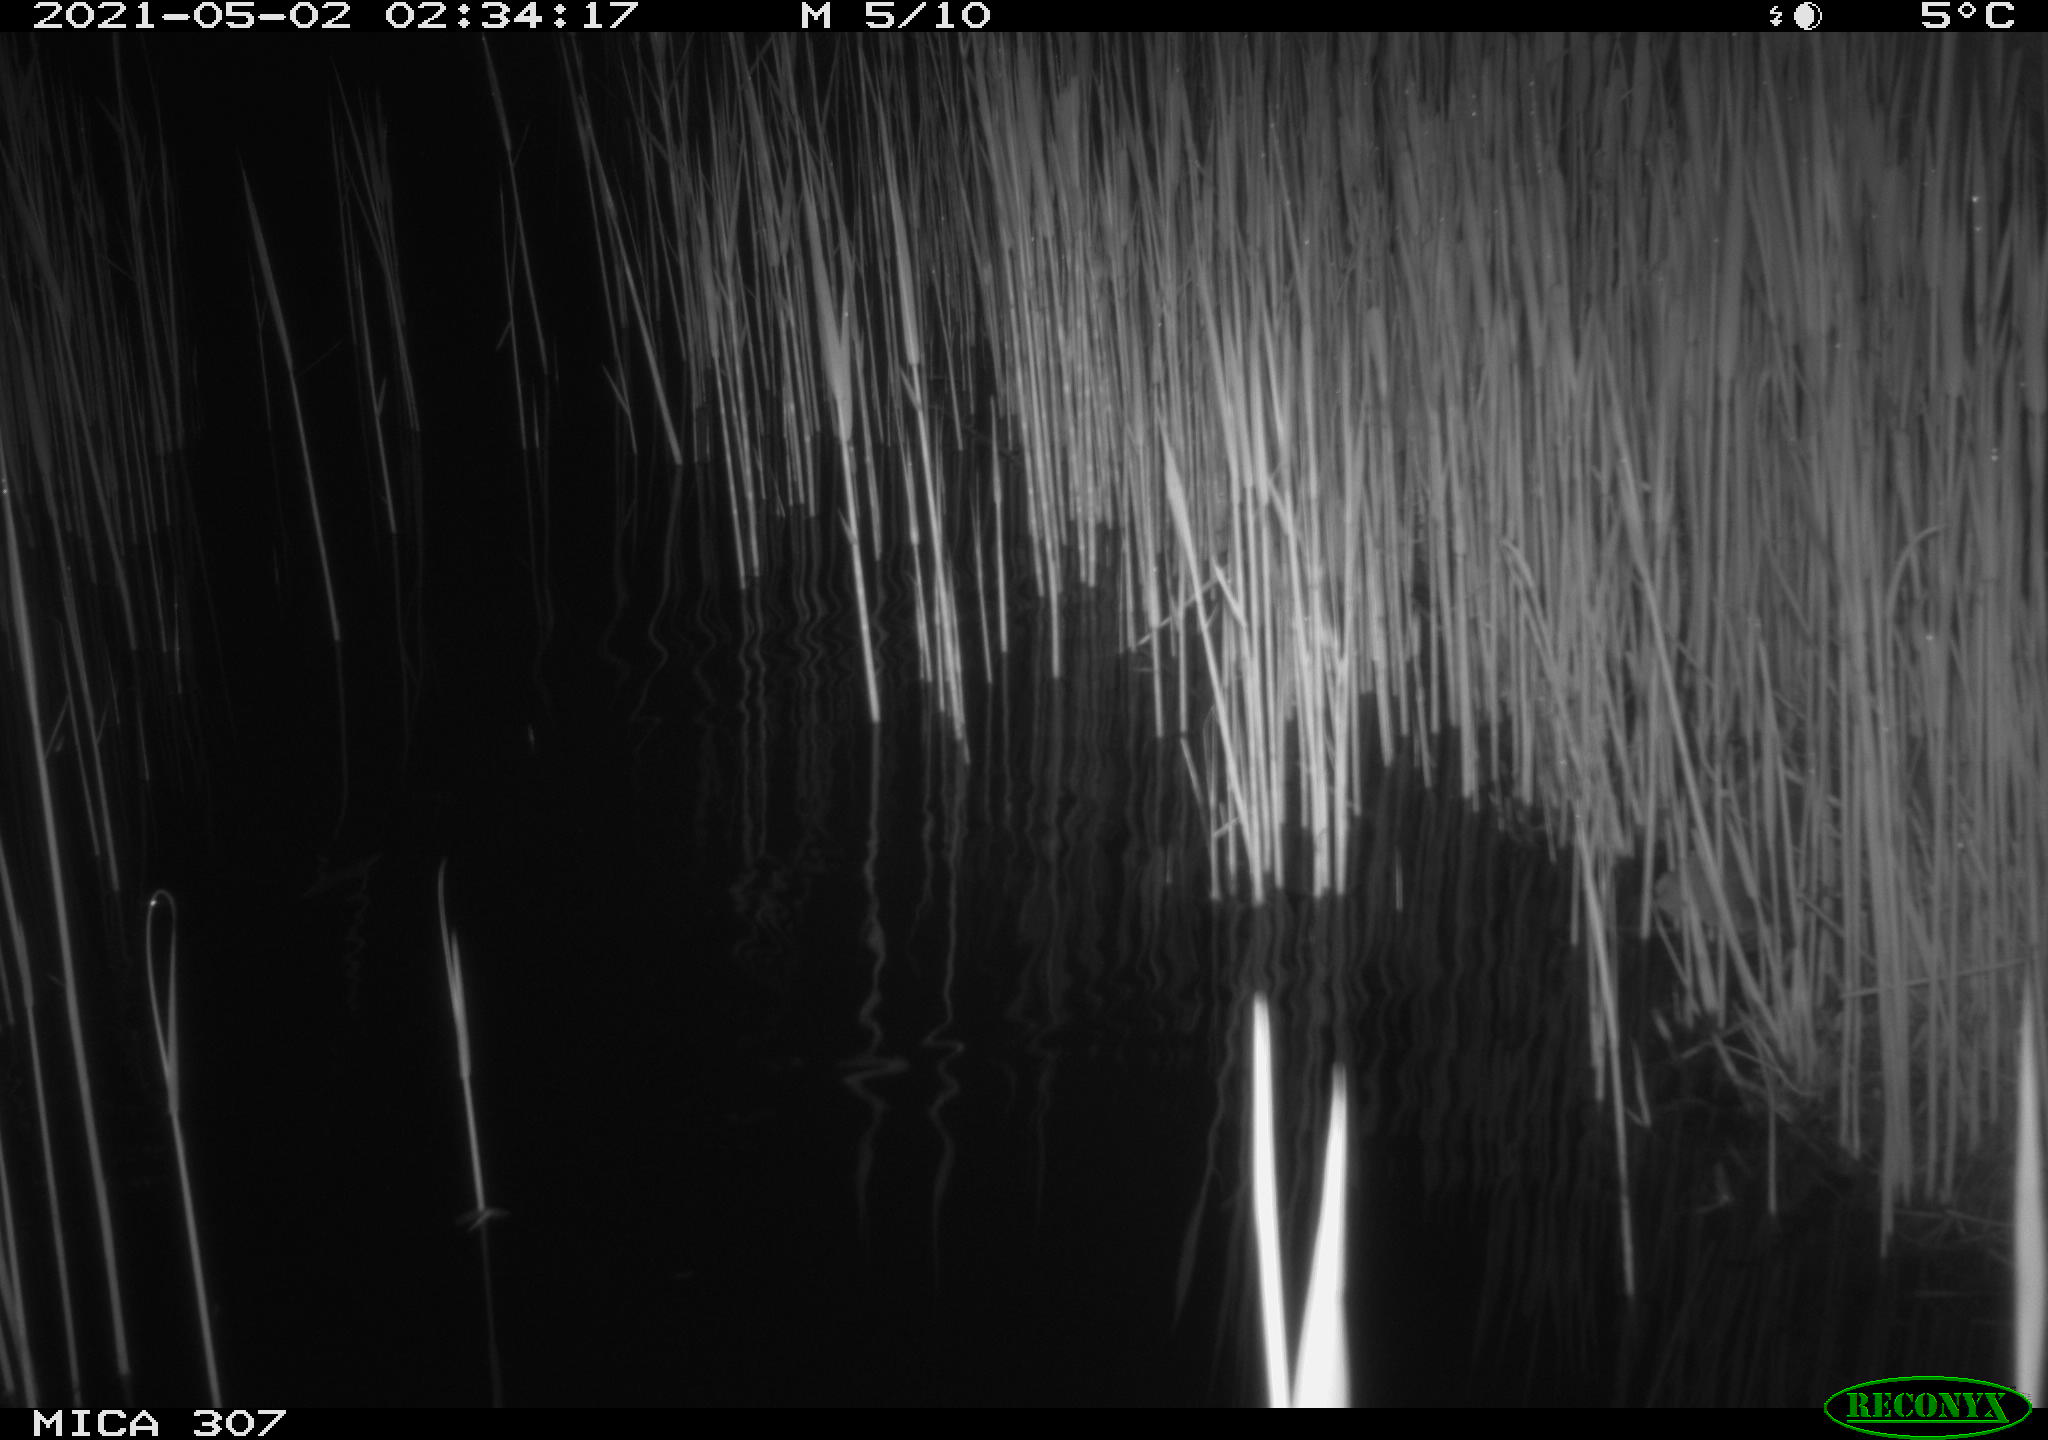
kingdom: Animalia
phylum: Chordata
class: Mammalia
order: Rodentia
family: Muridae
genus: Rattus
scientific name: Rattus norvegicus
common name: Brown rat
